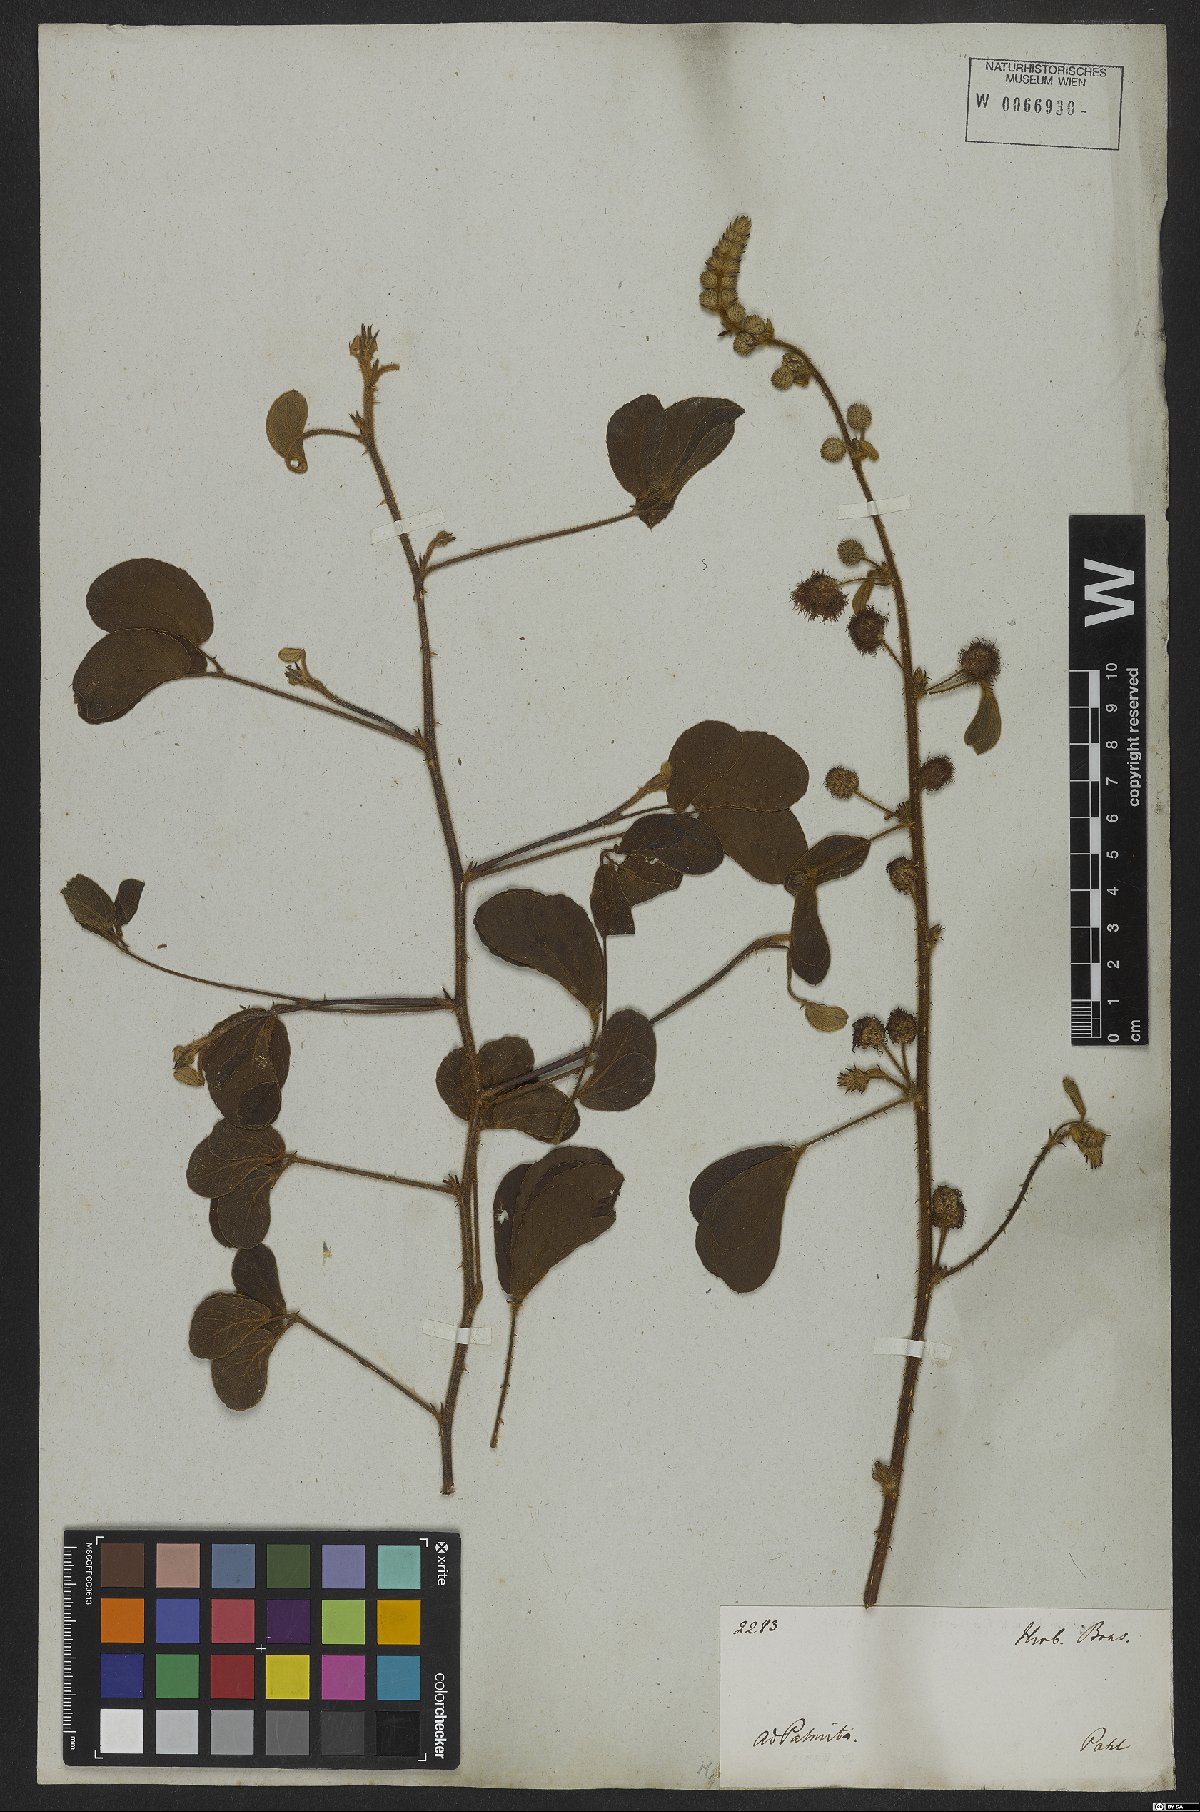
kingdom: Plantae
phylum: Tracheophyta
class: Magnoliopsida
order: Fabales
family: Fabaceae
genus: Mimosa
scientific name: Mimosa debilis
